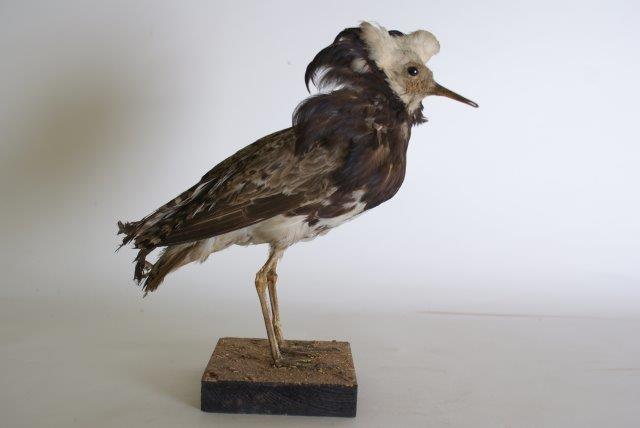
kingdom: Animalia
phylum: Chordata
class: Aves
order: Charadriiformes
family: Scolopacidae
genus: Calidris
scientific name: Calidris pugnax
